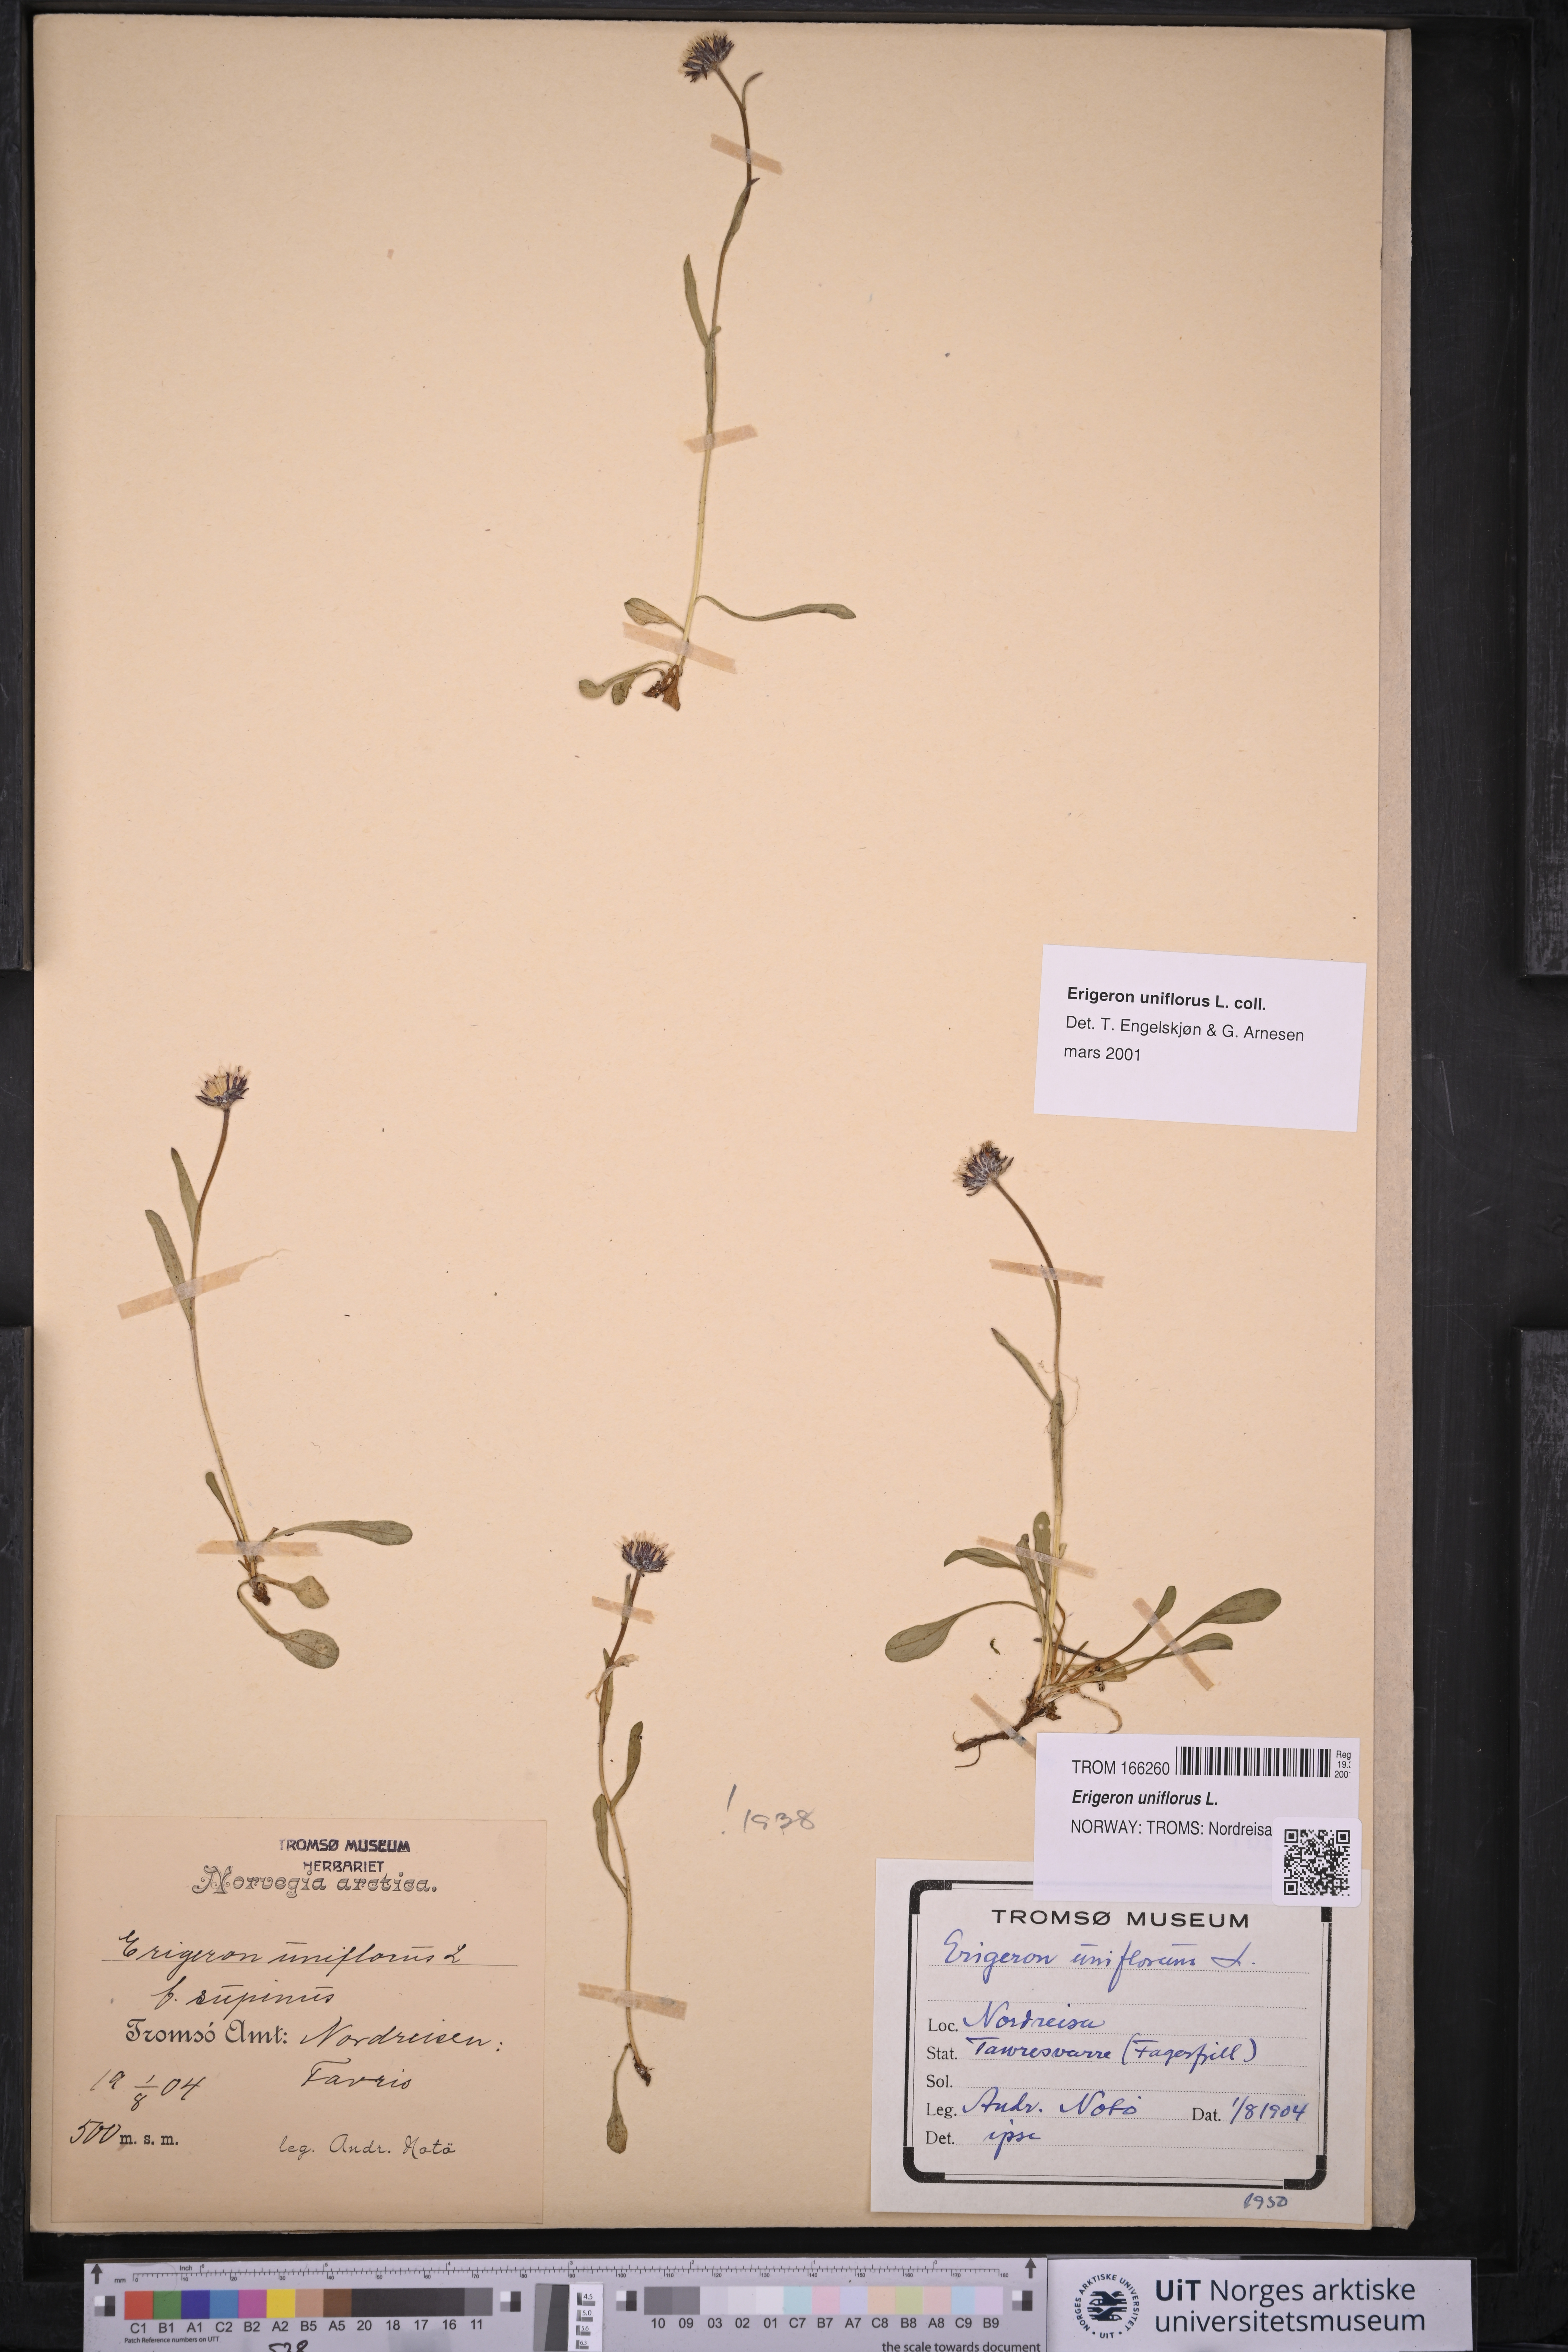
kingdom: Plantae
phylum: Tracheophyta
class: Magnoliopsida
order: Asterales
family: Asteraceae
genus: Erigeron
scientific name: Erigeron uniflorus
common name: Northern daisy
